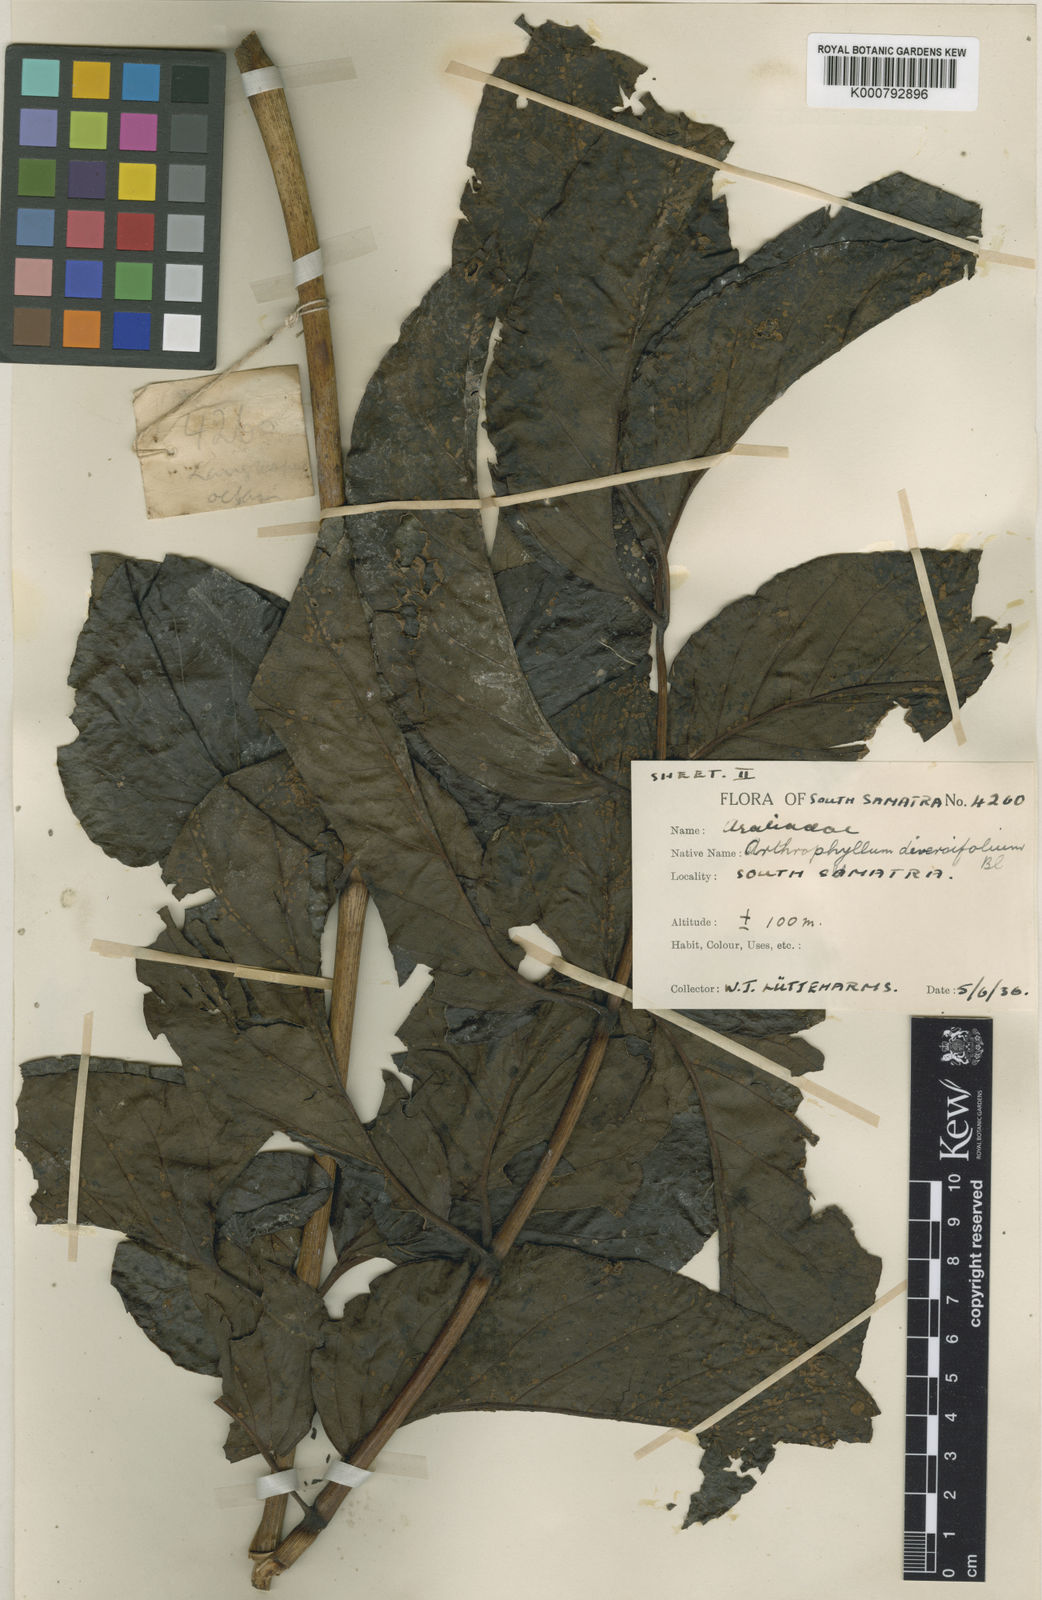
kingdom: Plantae
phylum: Tracheophyta
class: Magnoliopsida
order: Apiales
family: Araliaceae
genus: Polyscias
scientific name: Polyscias engganoense
